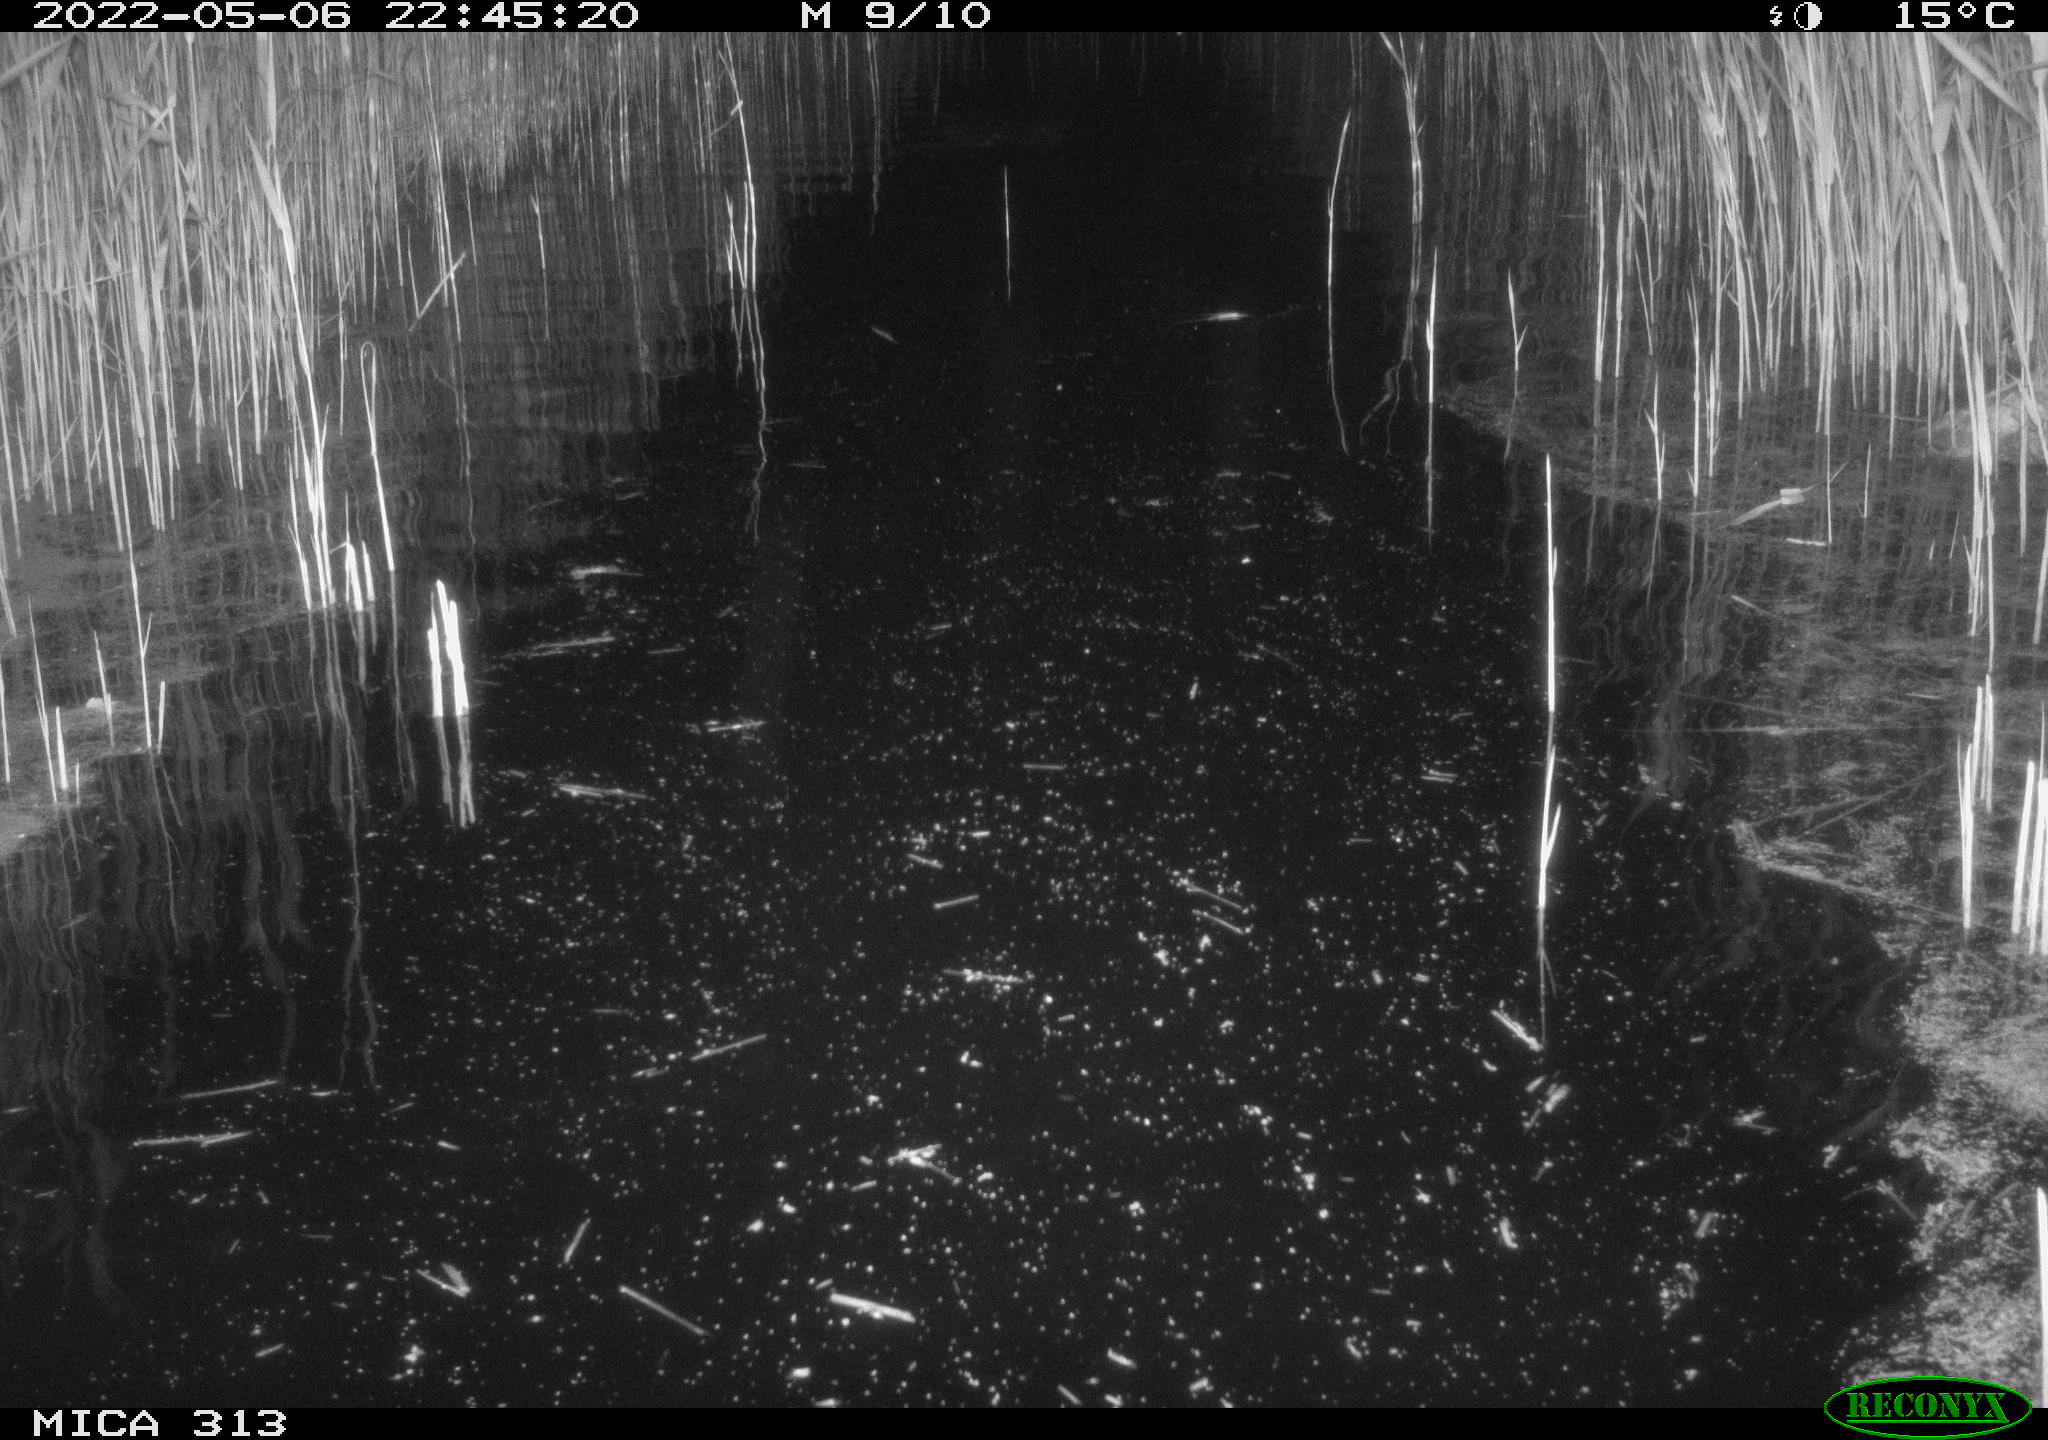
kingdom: Animalia
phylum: Chordata
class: Aves
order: Anseriformes
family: Anatidae
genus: Anas
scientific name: Anas platyrhynchos
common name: Mallard
